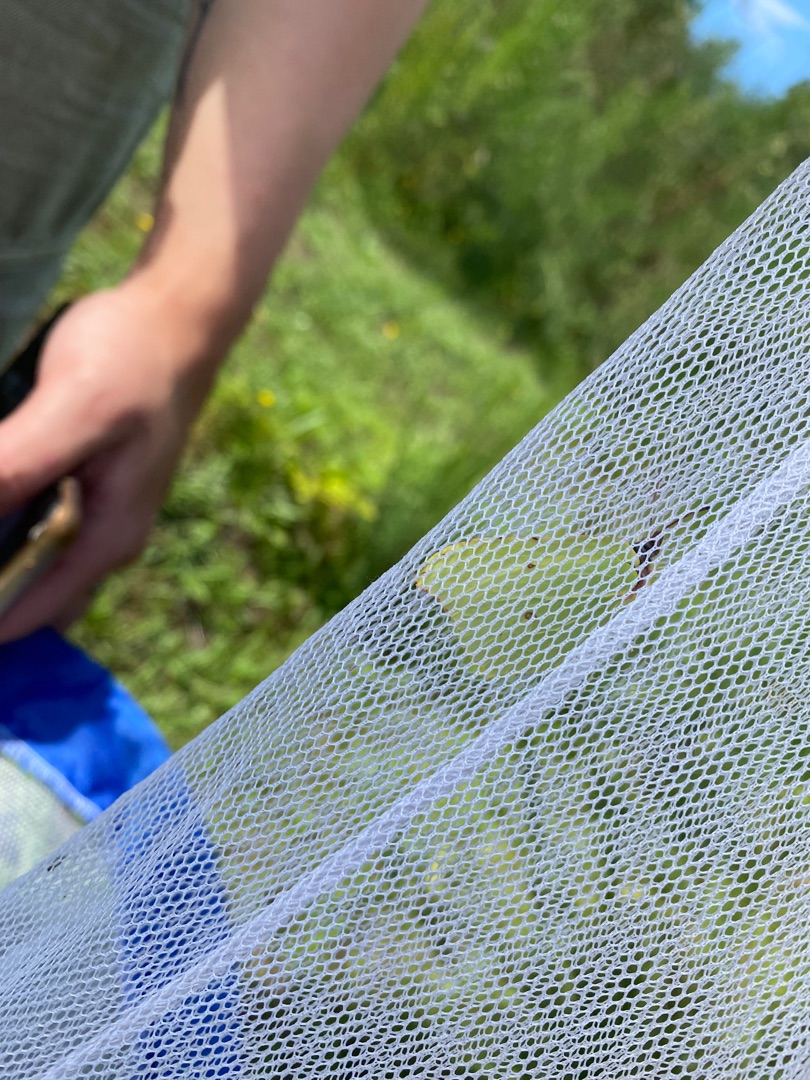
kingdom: Animalia
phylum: Arthropoda
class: Insecta
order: Lepidoptera
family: Pieridae
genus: Gonepteryx
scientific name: Gonepteryx rhamni
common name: Citronsommerfugl
